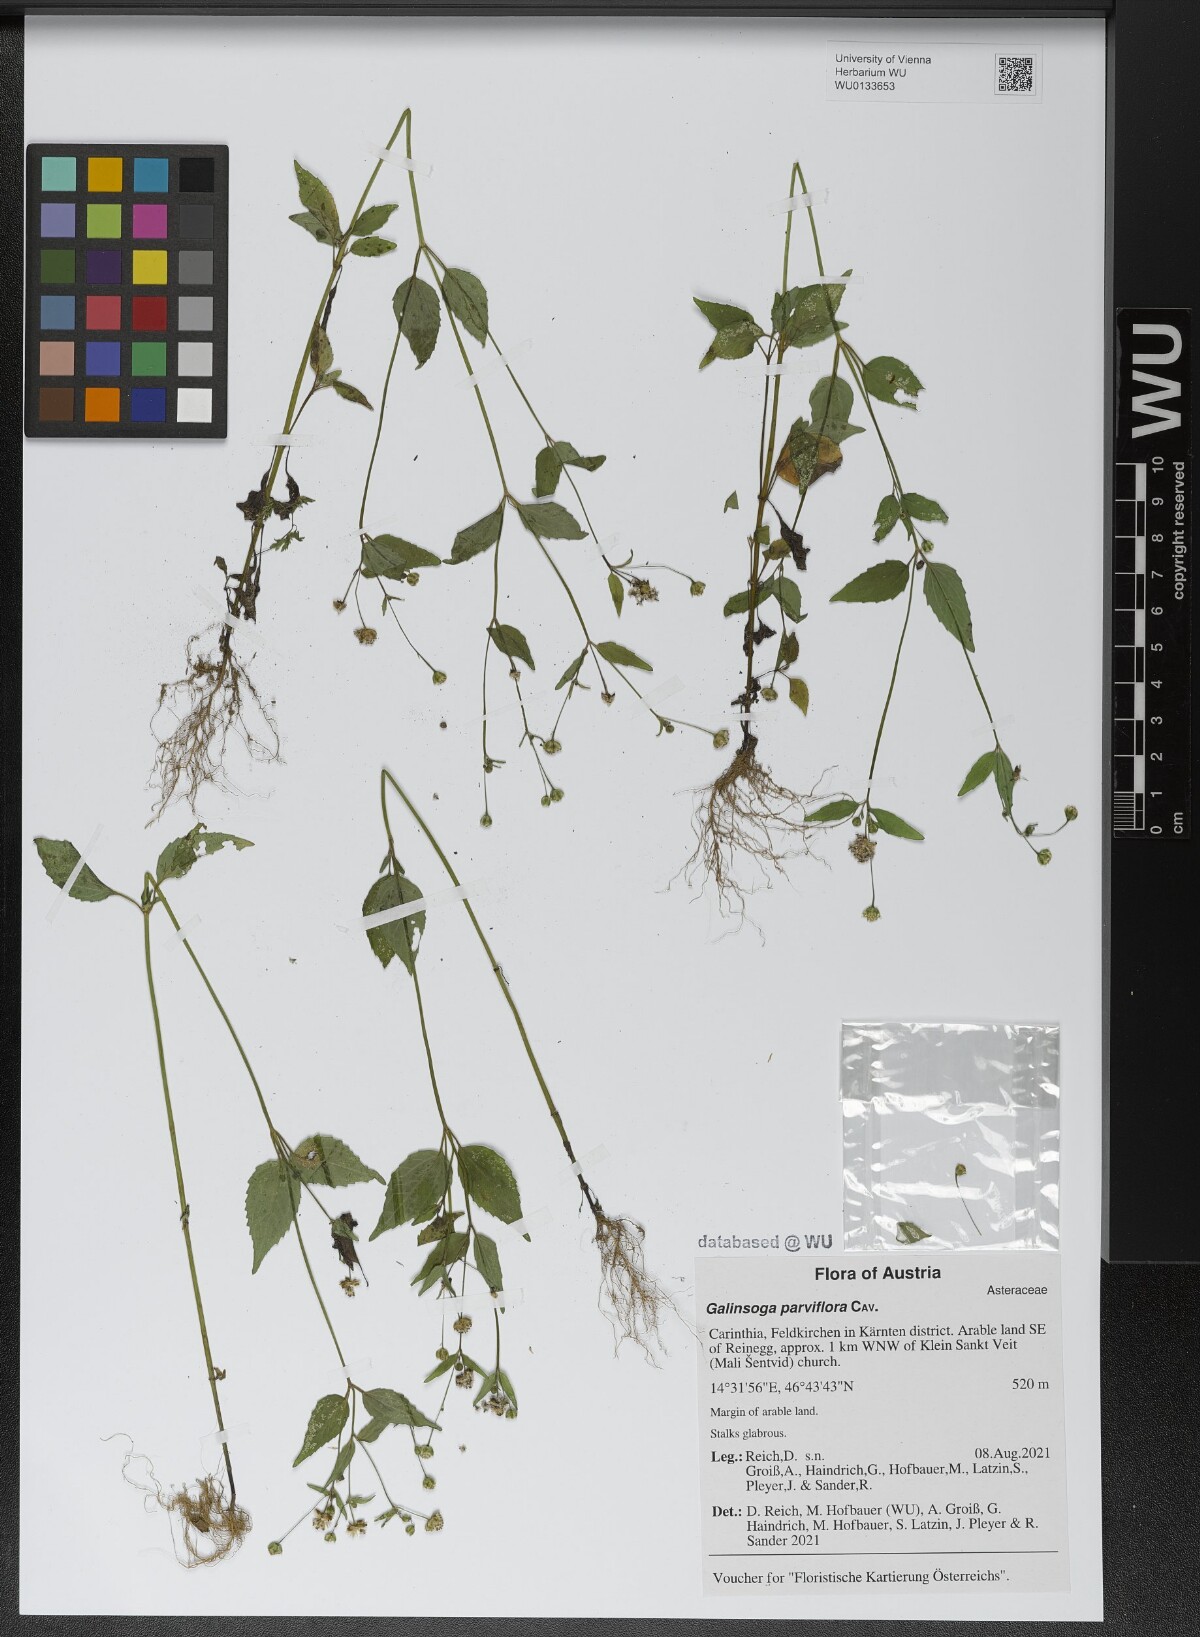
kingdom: Plantae
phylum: Tracheophyta
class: Magnoliopsida
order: Asterales
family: Asteraceae
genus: Galinsoga
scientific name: Galinsoga parviflora
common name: Gallant soldier
